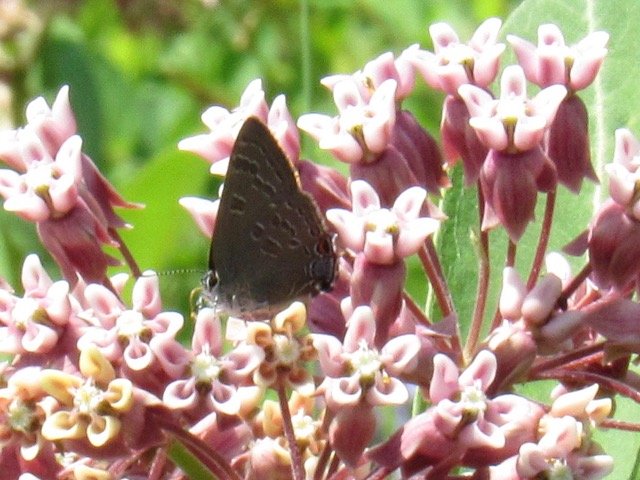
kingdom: Animalia
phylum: Arthropoda
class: Insecta
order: Lepidoptera
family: Lycaenidae
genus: Strymon
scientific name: Strymon caryaevorus
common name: Hickory Hairstreak
